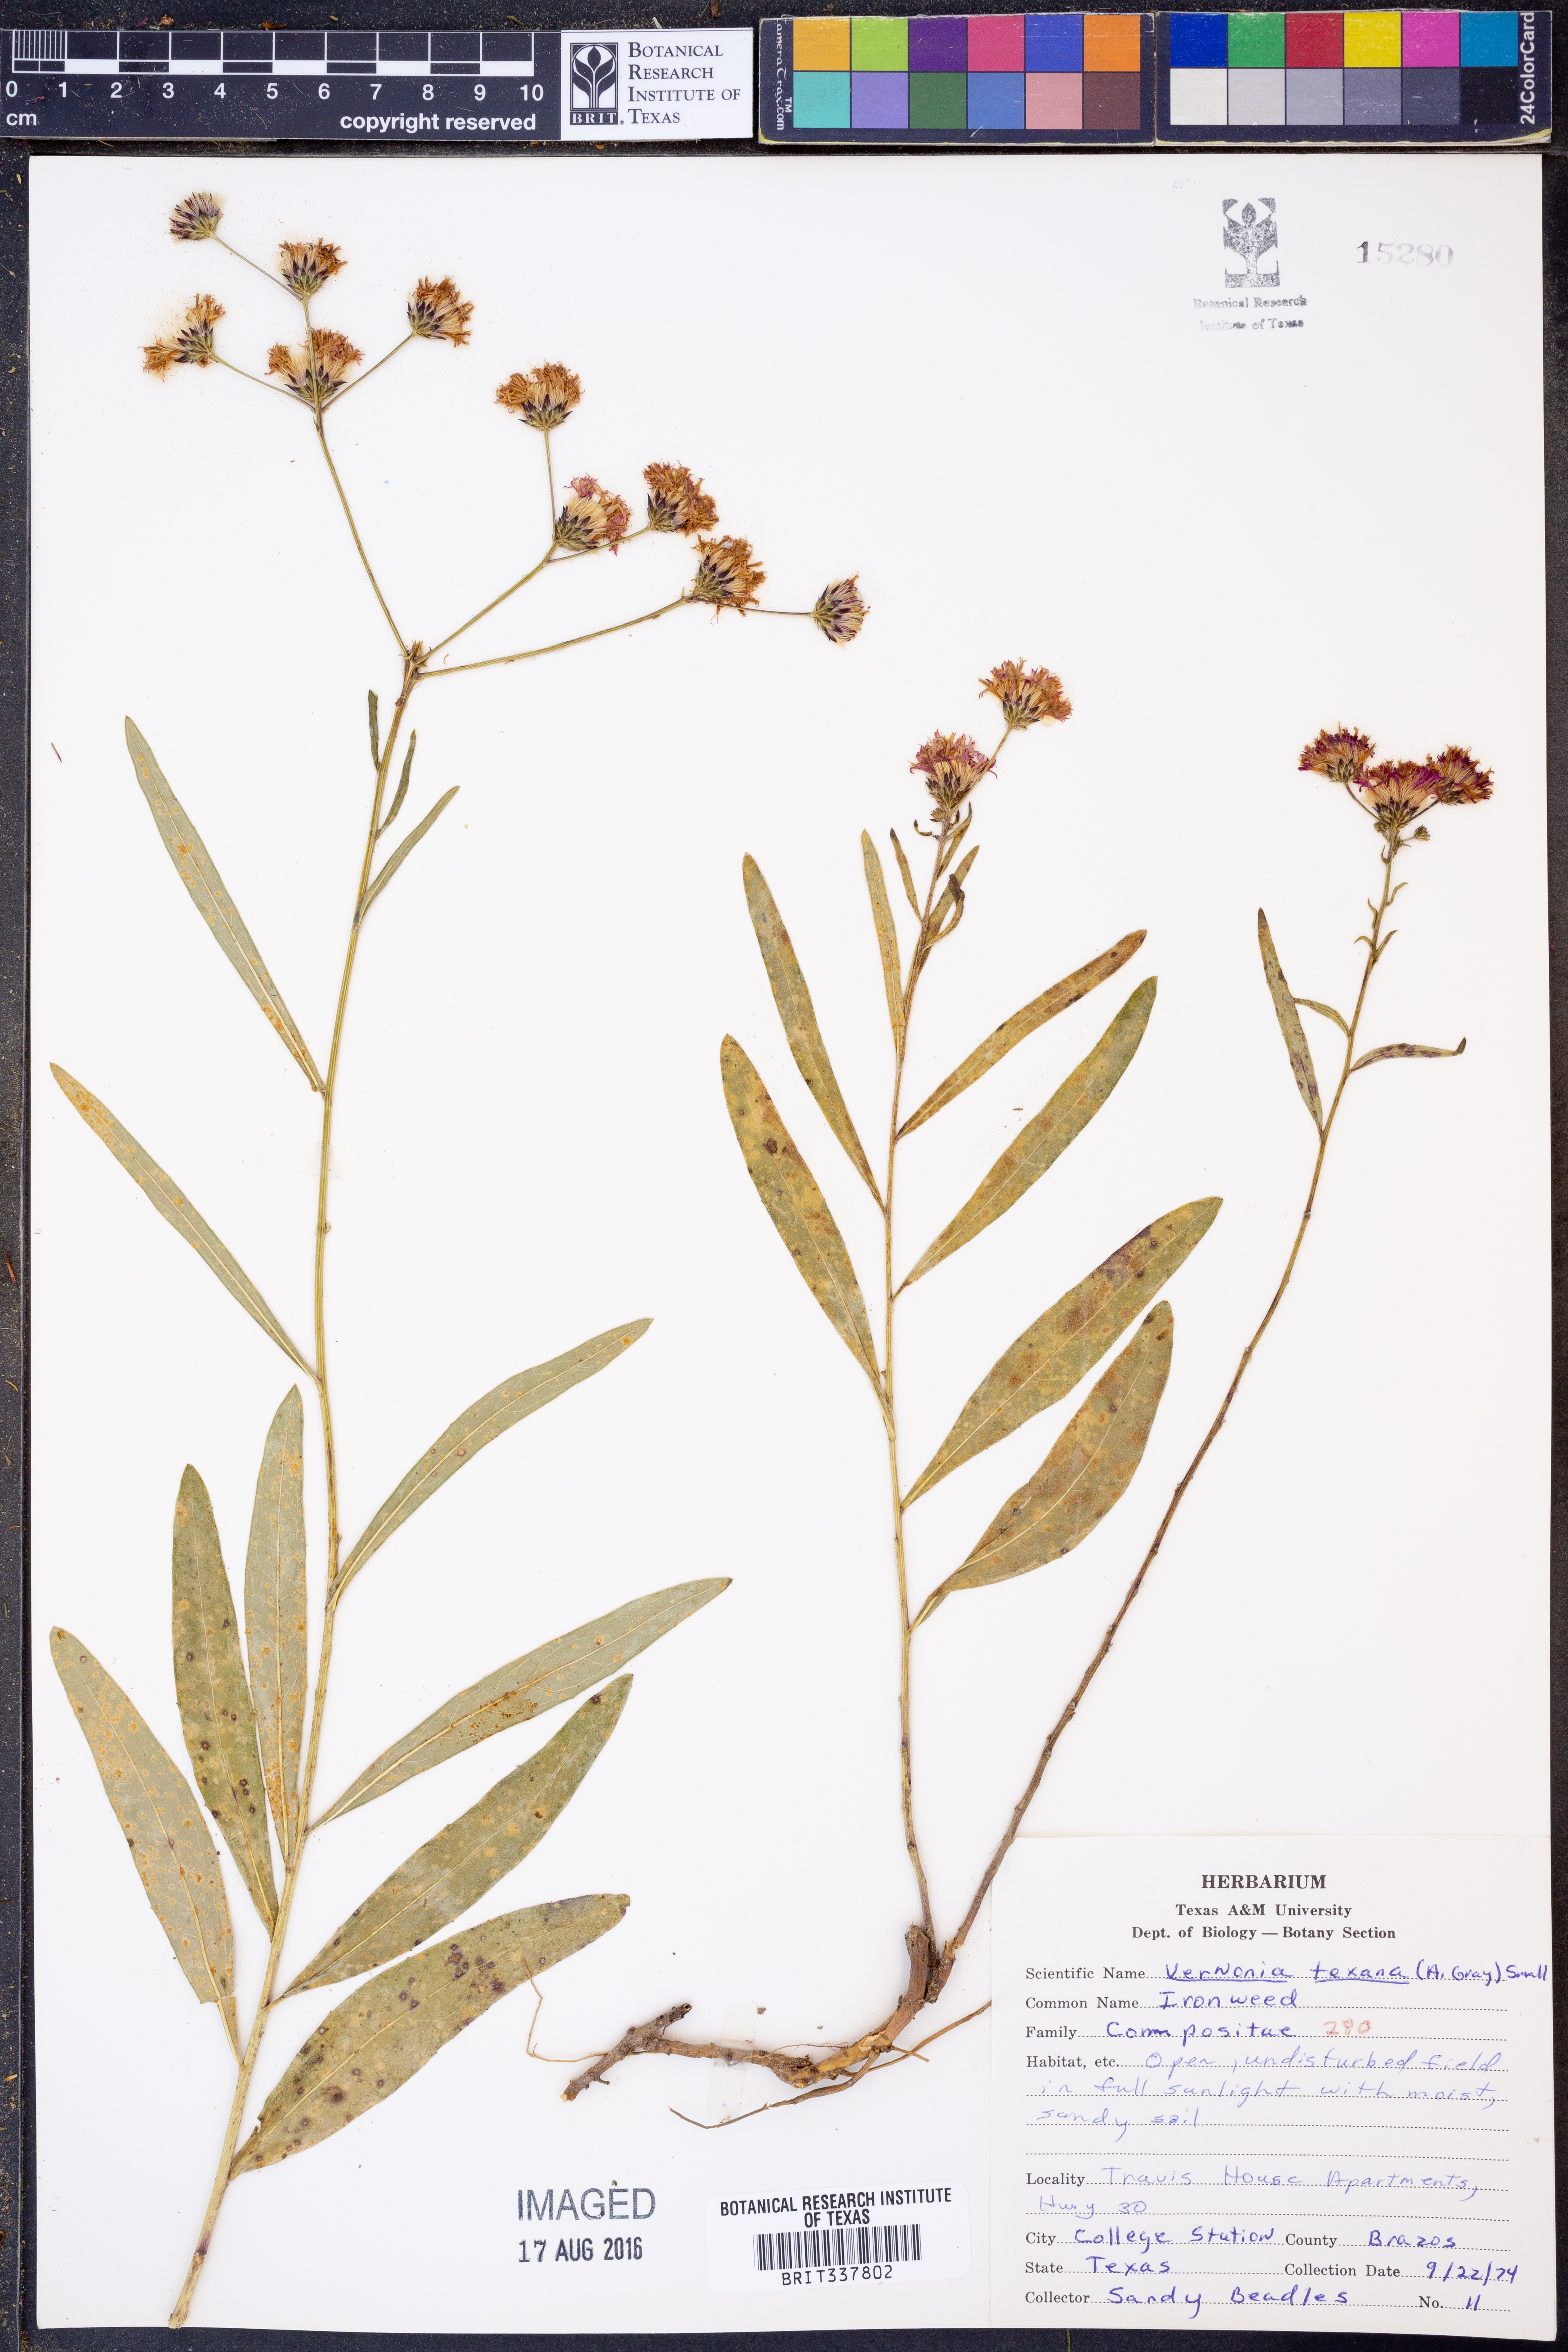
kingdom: Plantae
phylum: Tracheophyta
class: Magnoliopsida
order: Asterales
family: Asteraceae
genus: Vernonia
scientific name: Vernonia texana
